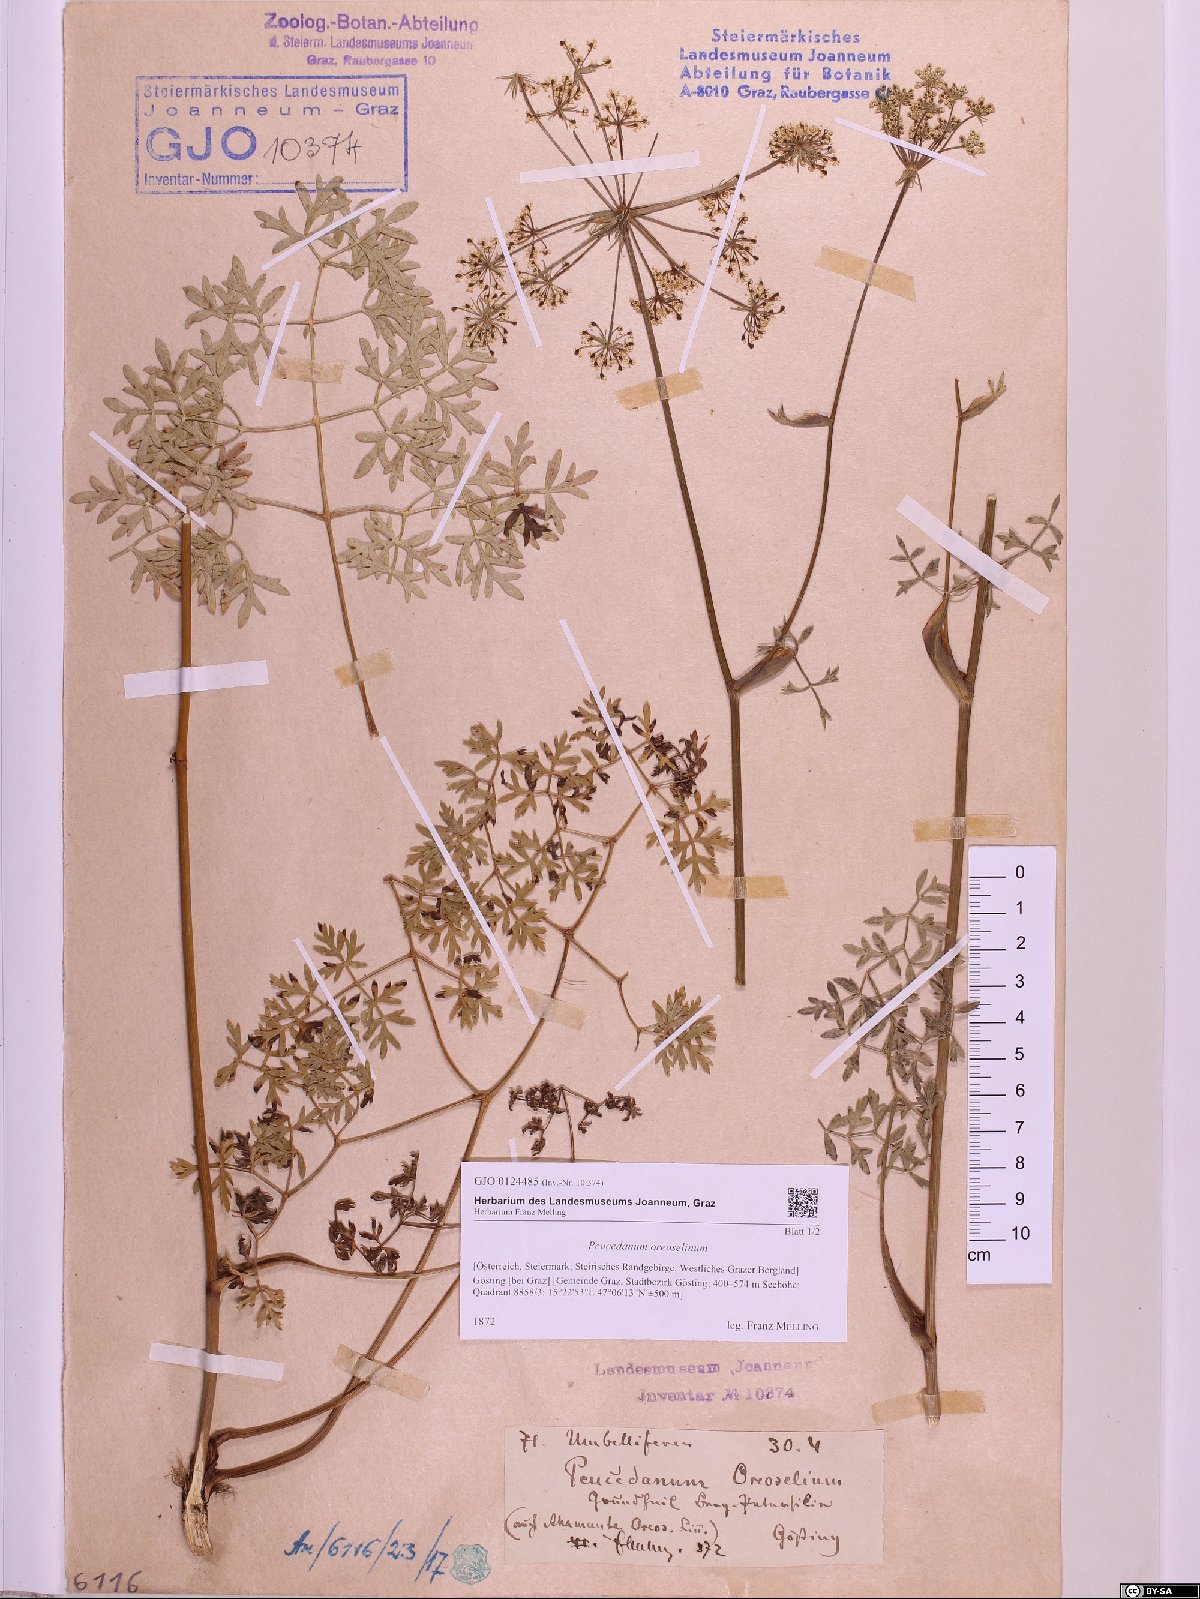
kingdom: Plantae
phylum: Tracheophyta
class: Magnoliopsida
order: Apiales
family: Apiaceae
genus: Oreoselinum
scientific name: Oreoselinum nigrum
